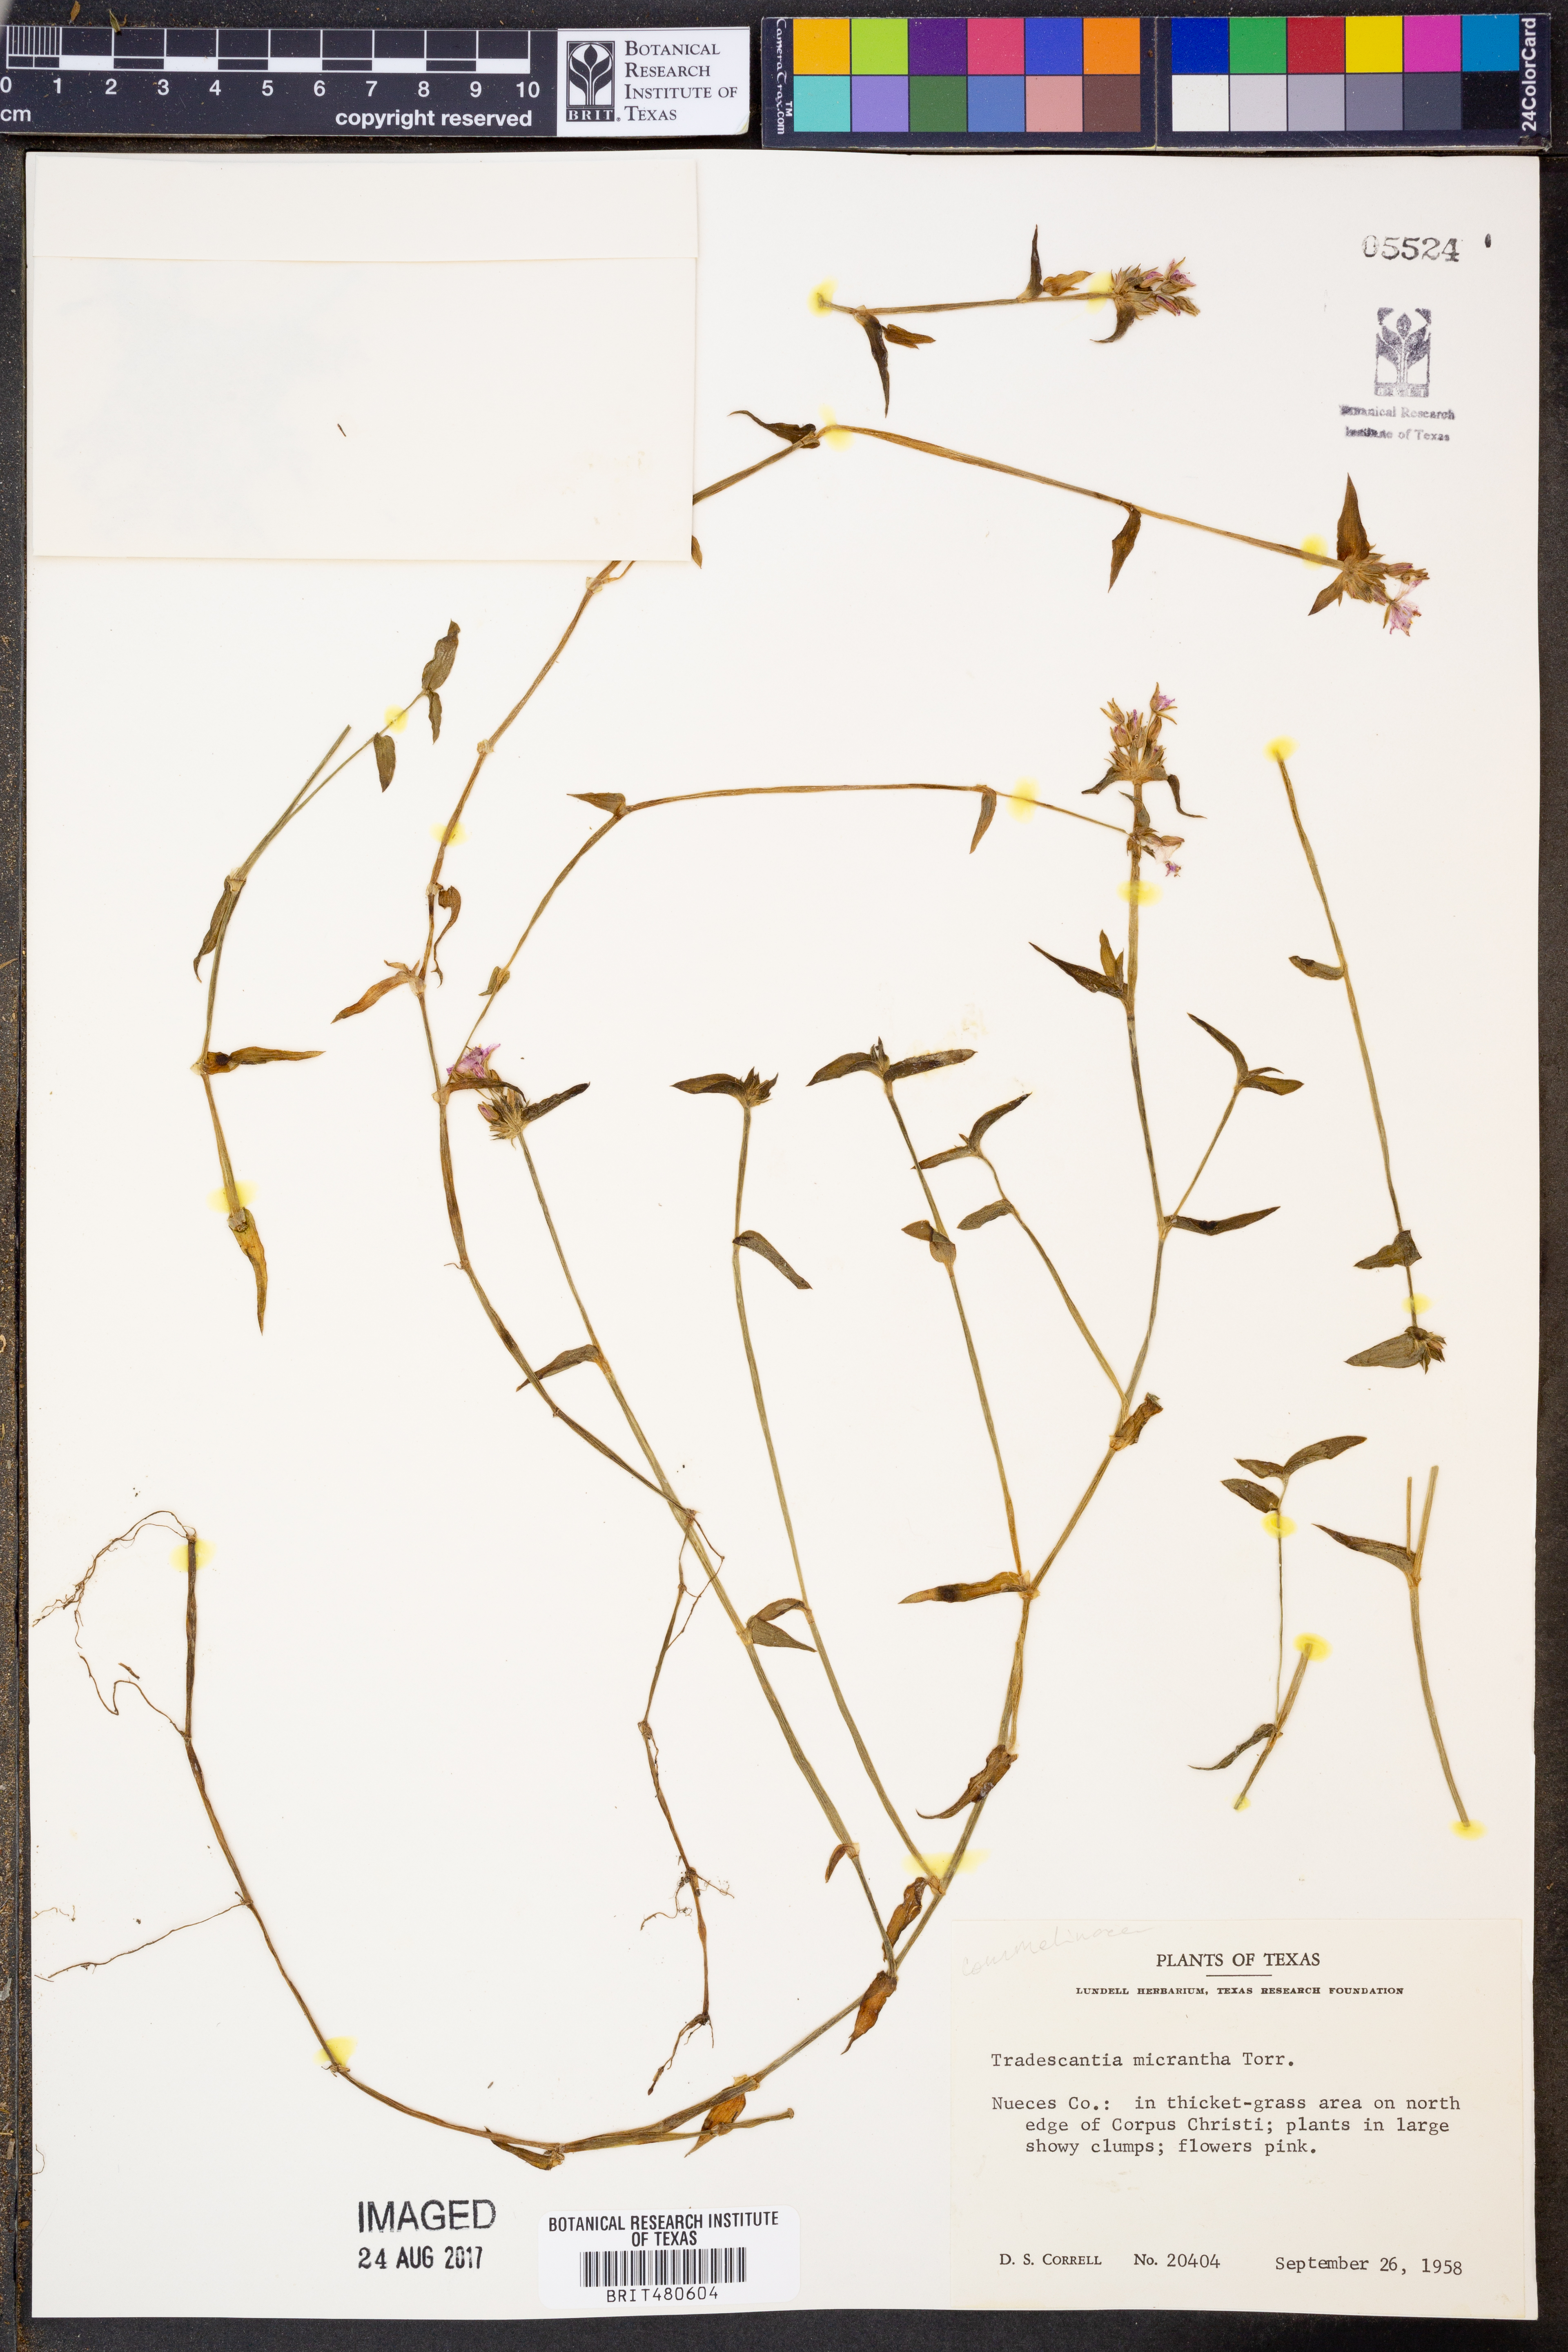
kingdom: Plantae
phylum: Tracheophyta
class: Liliopsida
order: Commelinales
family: Commelinaceae
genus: Callisia
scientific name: Callisia micrantha
